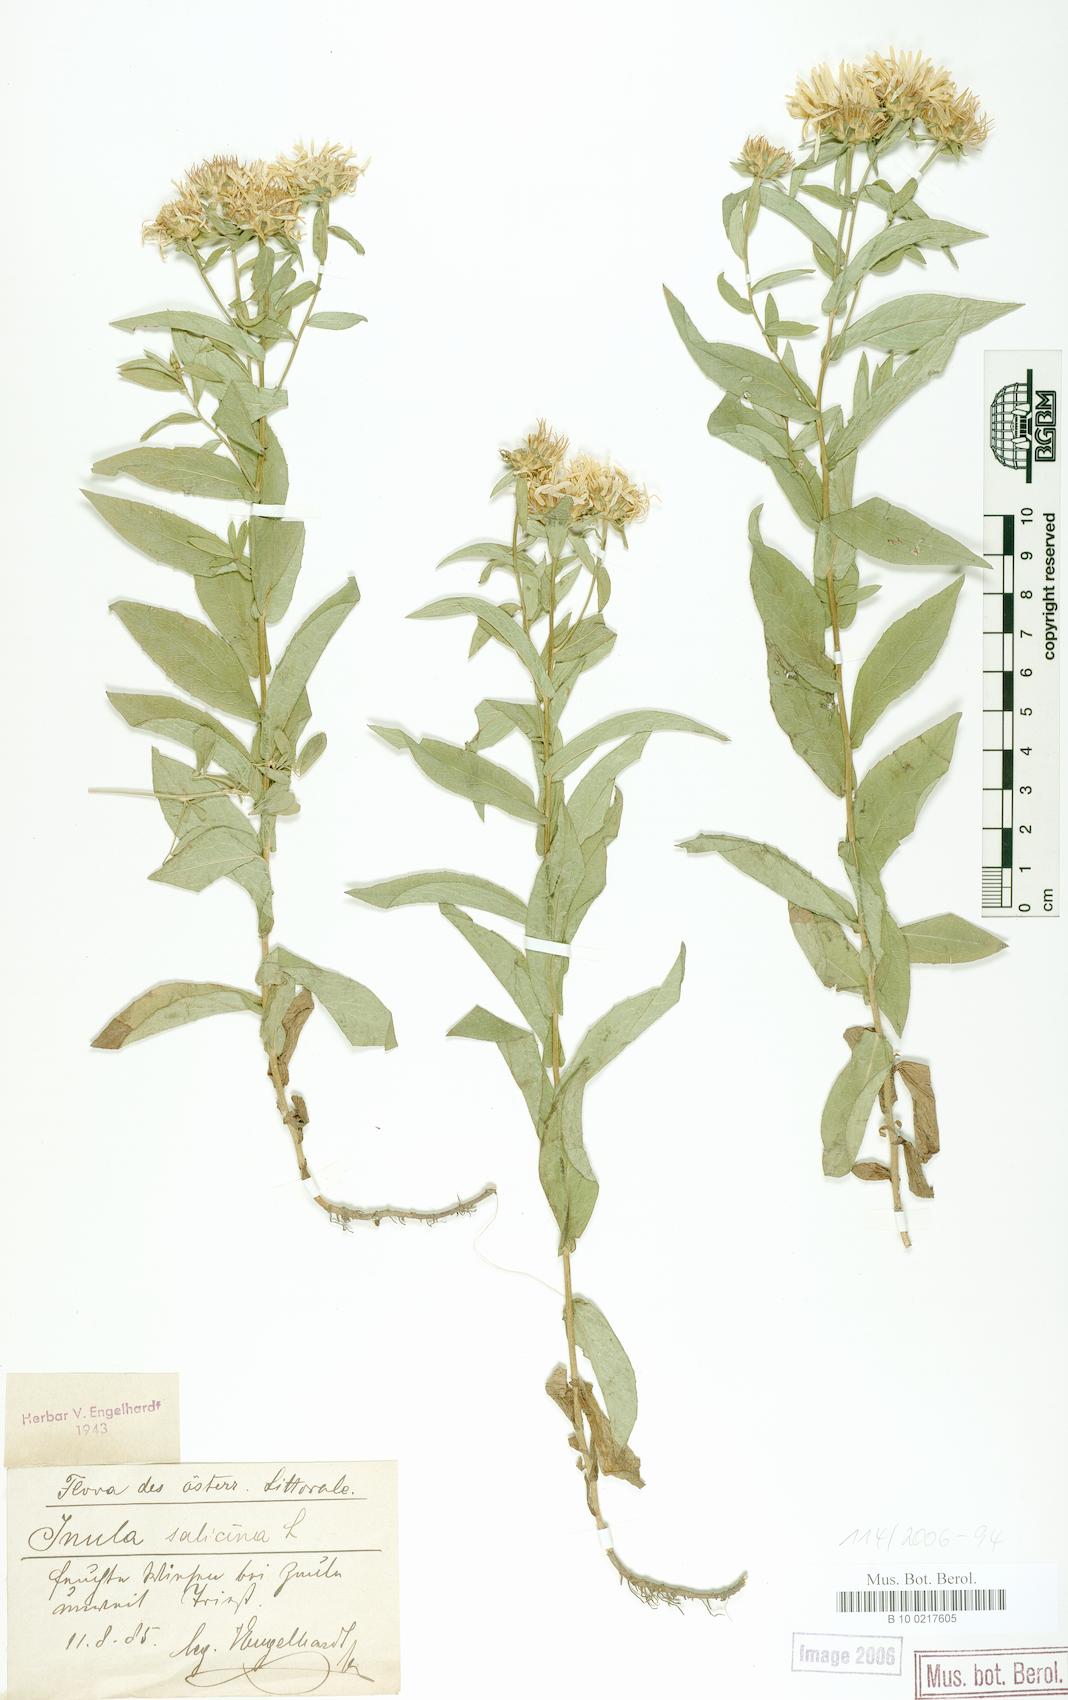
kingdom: Plantae
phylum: Tracheophyta
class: Magnoliopsida
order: Asterales
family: Asteraceae
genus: Pentanema
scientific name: Pentanema salicinum
